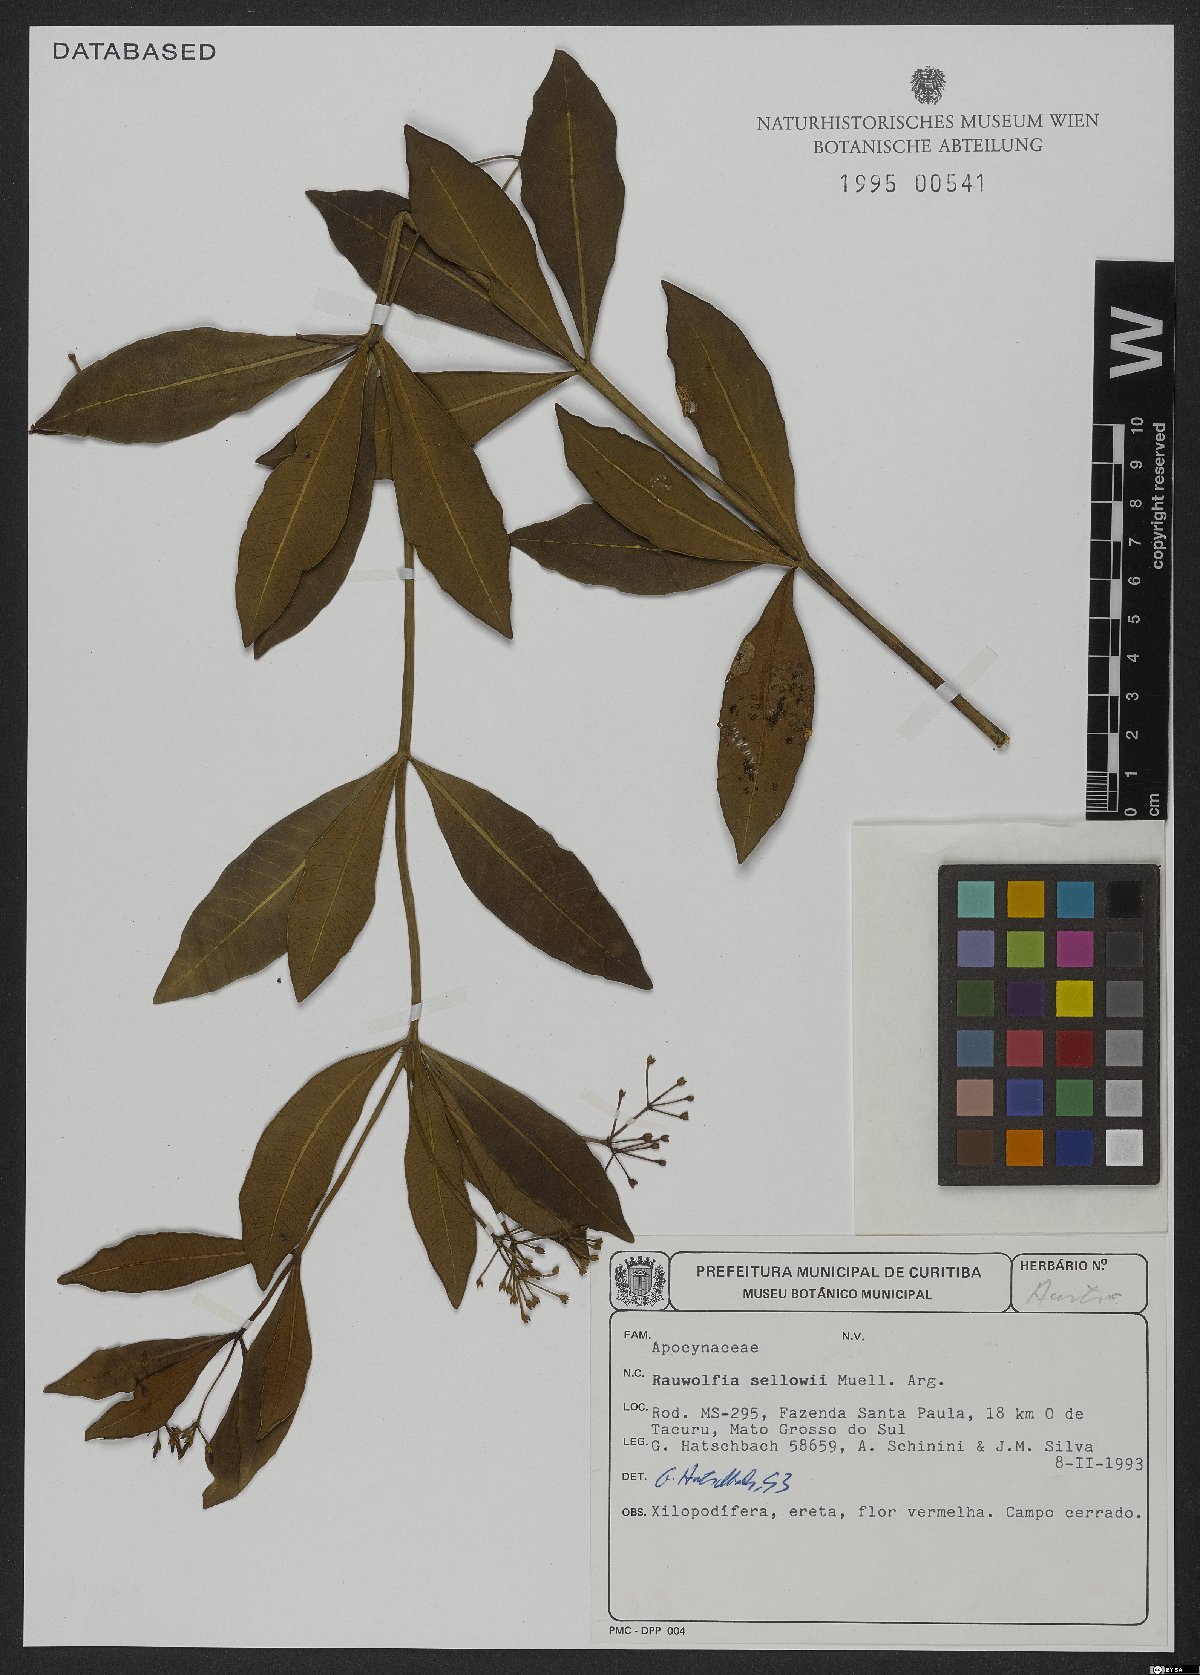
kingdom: Plantae
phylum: Tracheophyta
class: Magnoliopsida
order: Gentianales
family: Apocynaceae
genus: Rauvolfia
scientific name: Rauvolfia sellowii
